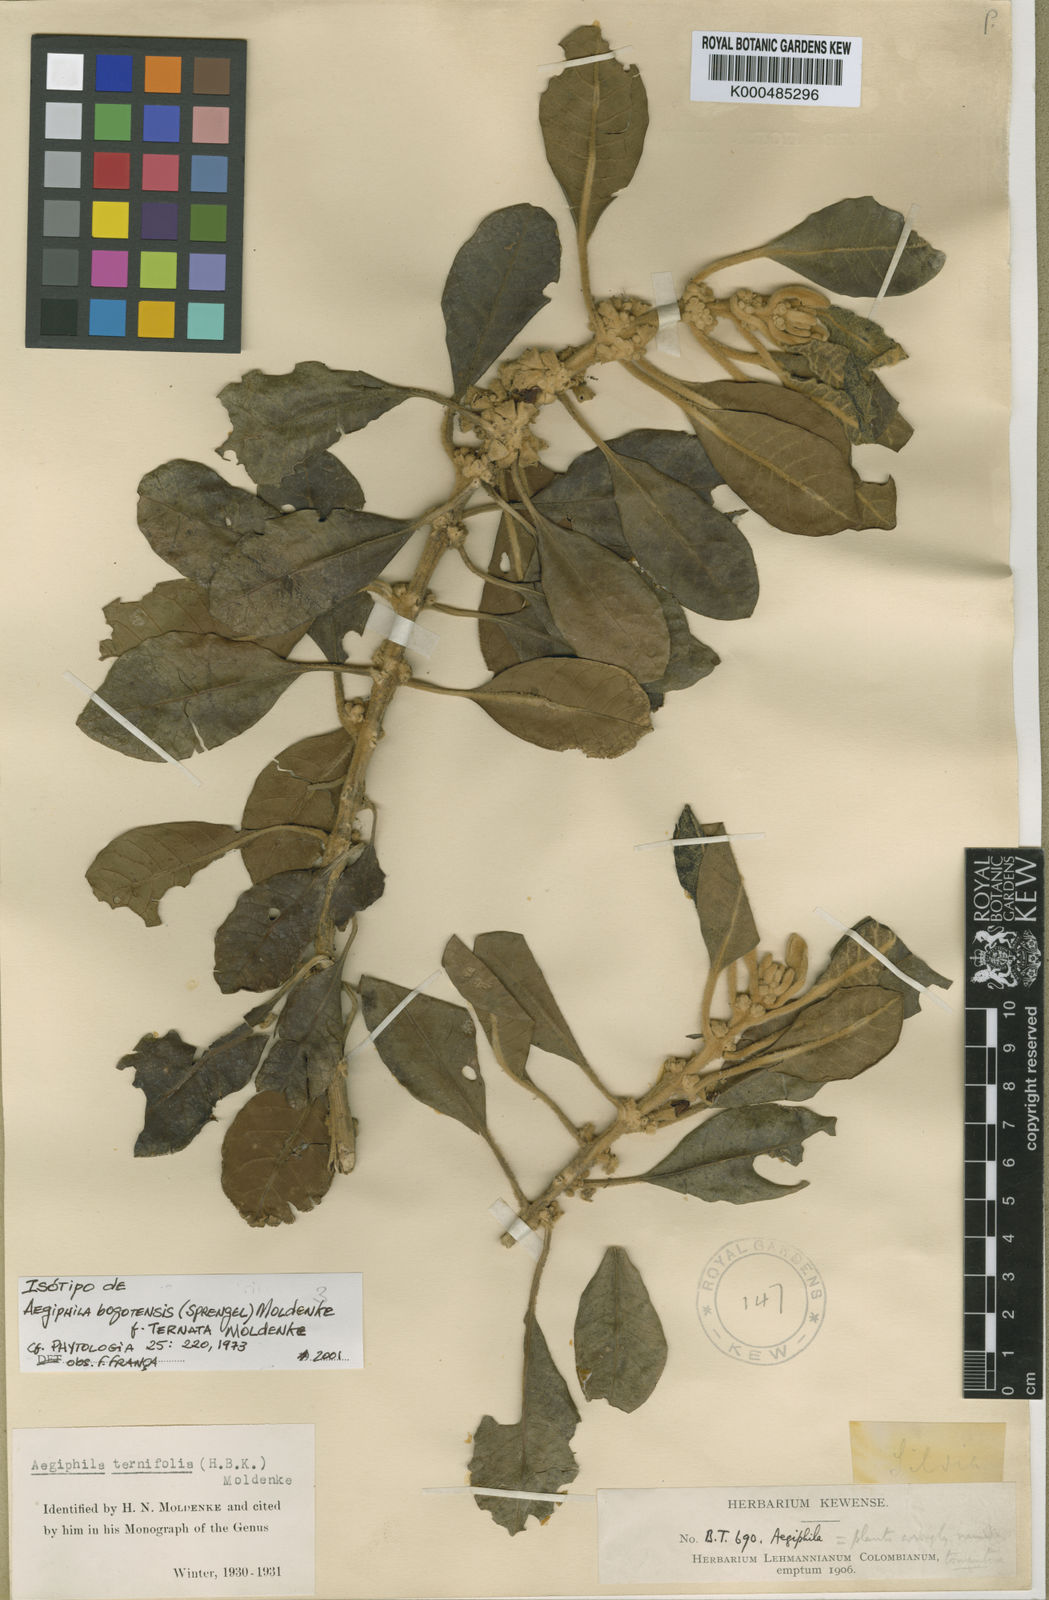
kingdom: Plantae
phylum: Tracheophyta
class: Magnoliopsida
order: Lamiales
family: Lamiaceae
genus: Aegiphila
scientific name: Aegiphila bogotensis
